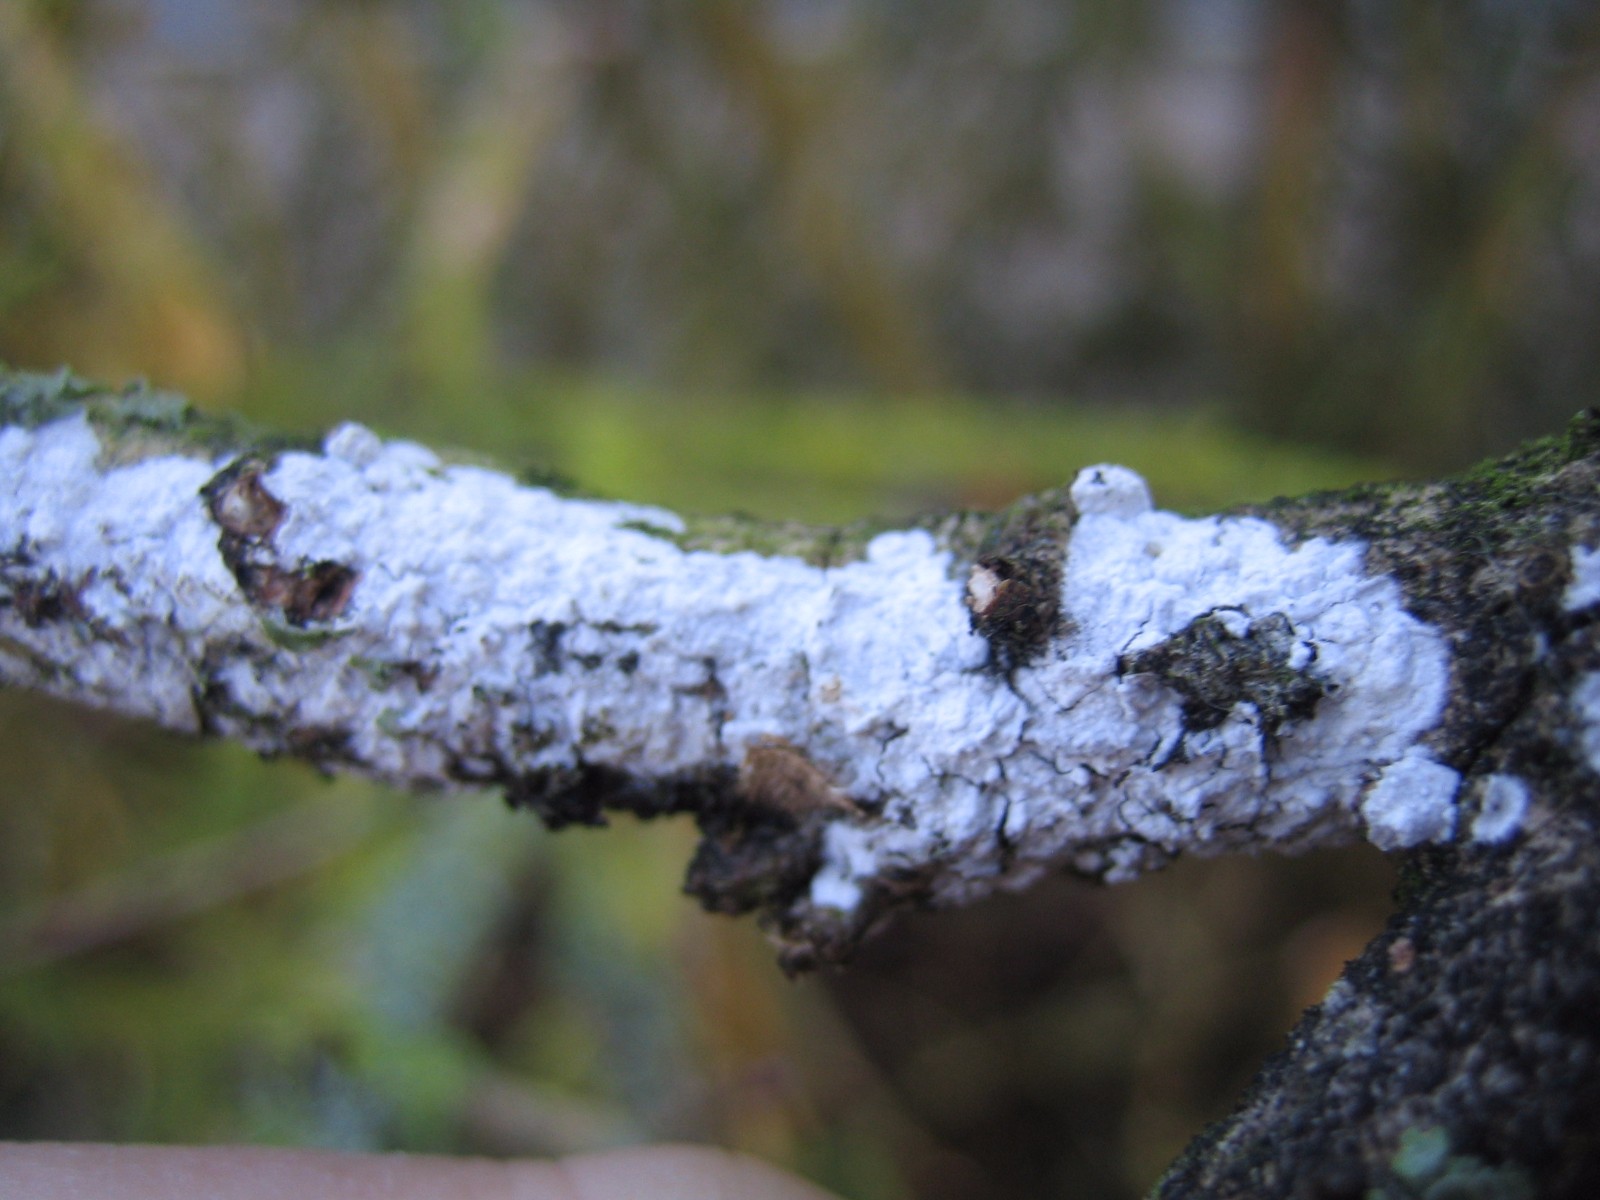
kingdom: Fungi
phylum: Basidiomycota
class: Agaricomycetes
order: Corticiales
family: Corticiaceae
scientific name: Corticiaceae
